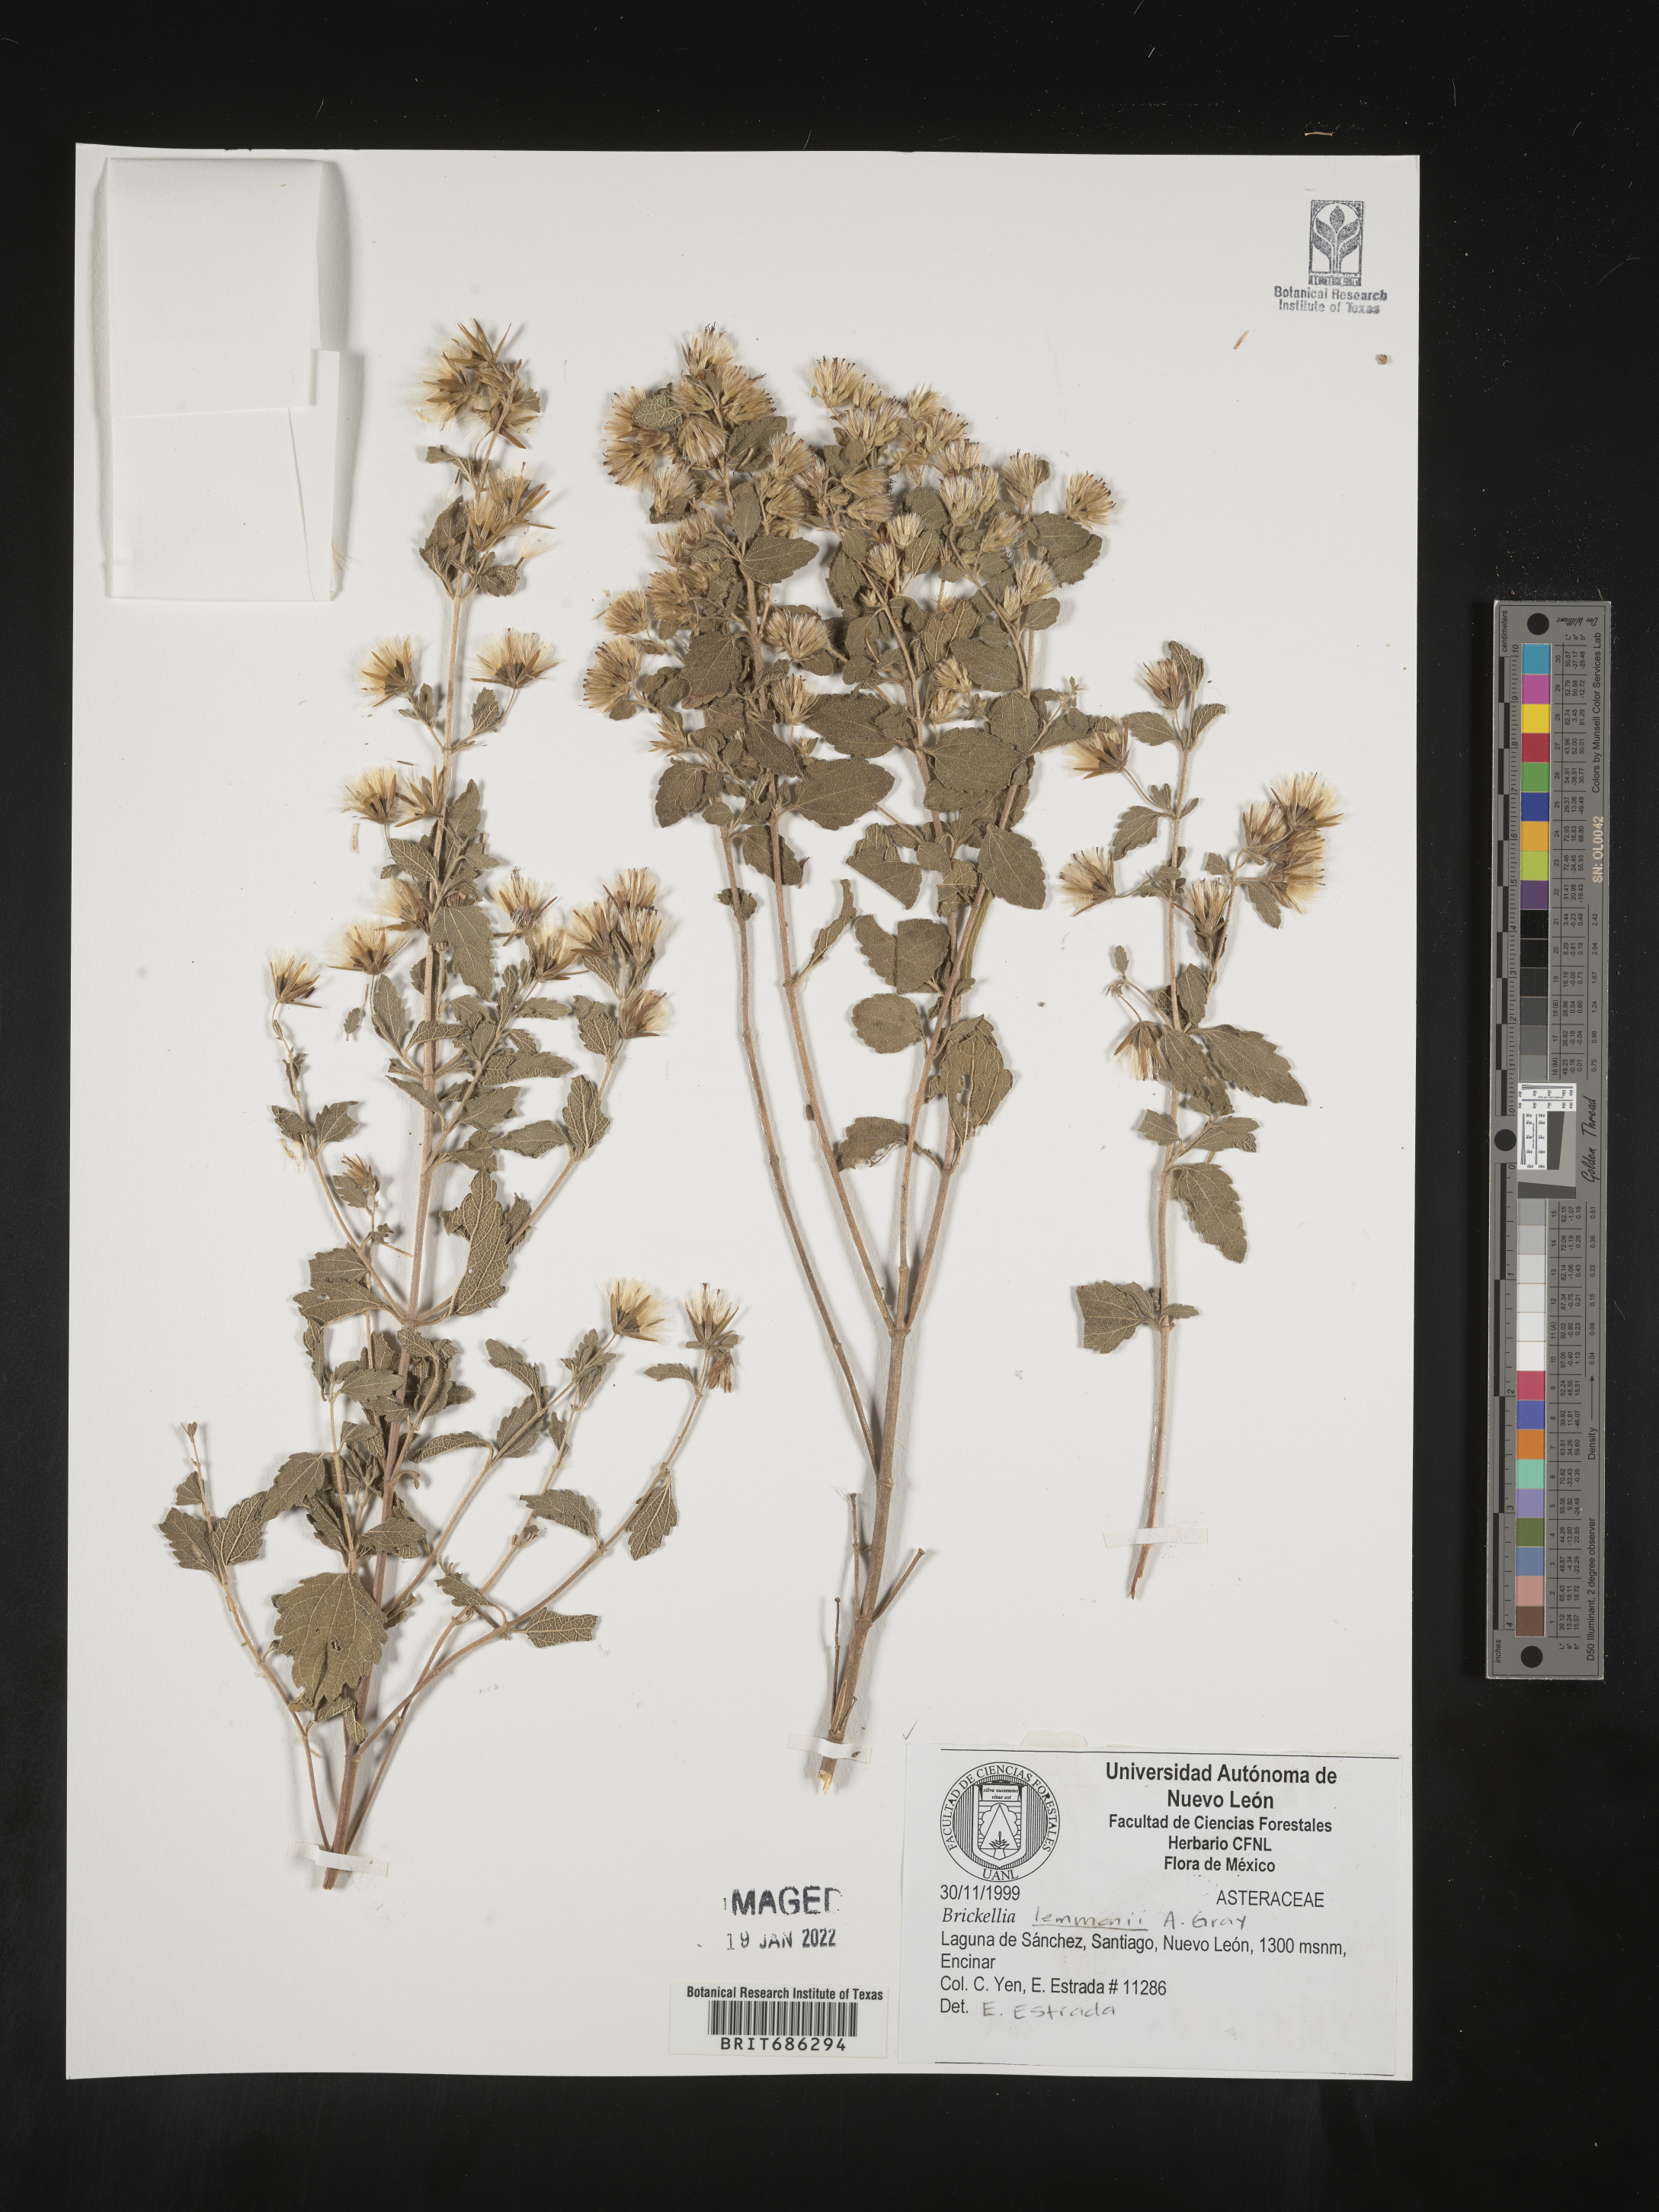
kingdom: Plantae
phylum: Tracheophyta
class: Magnoliopsida
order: Asterales
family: Asteraceae
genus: Brickellia
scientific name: Brickellia
